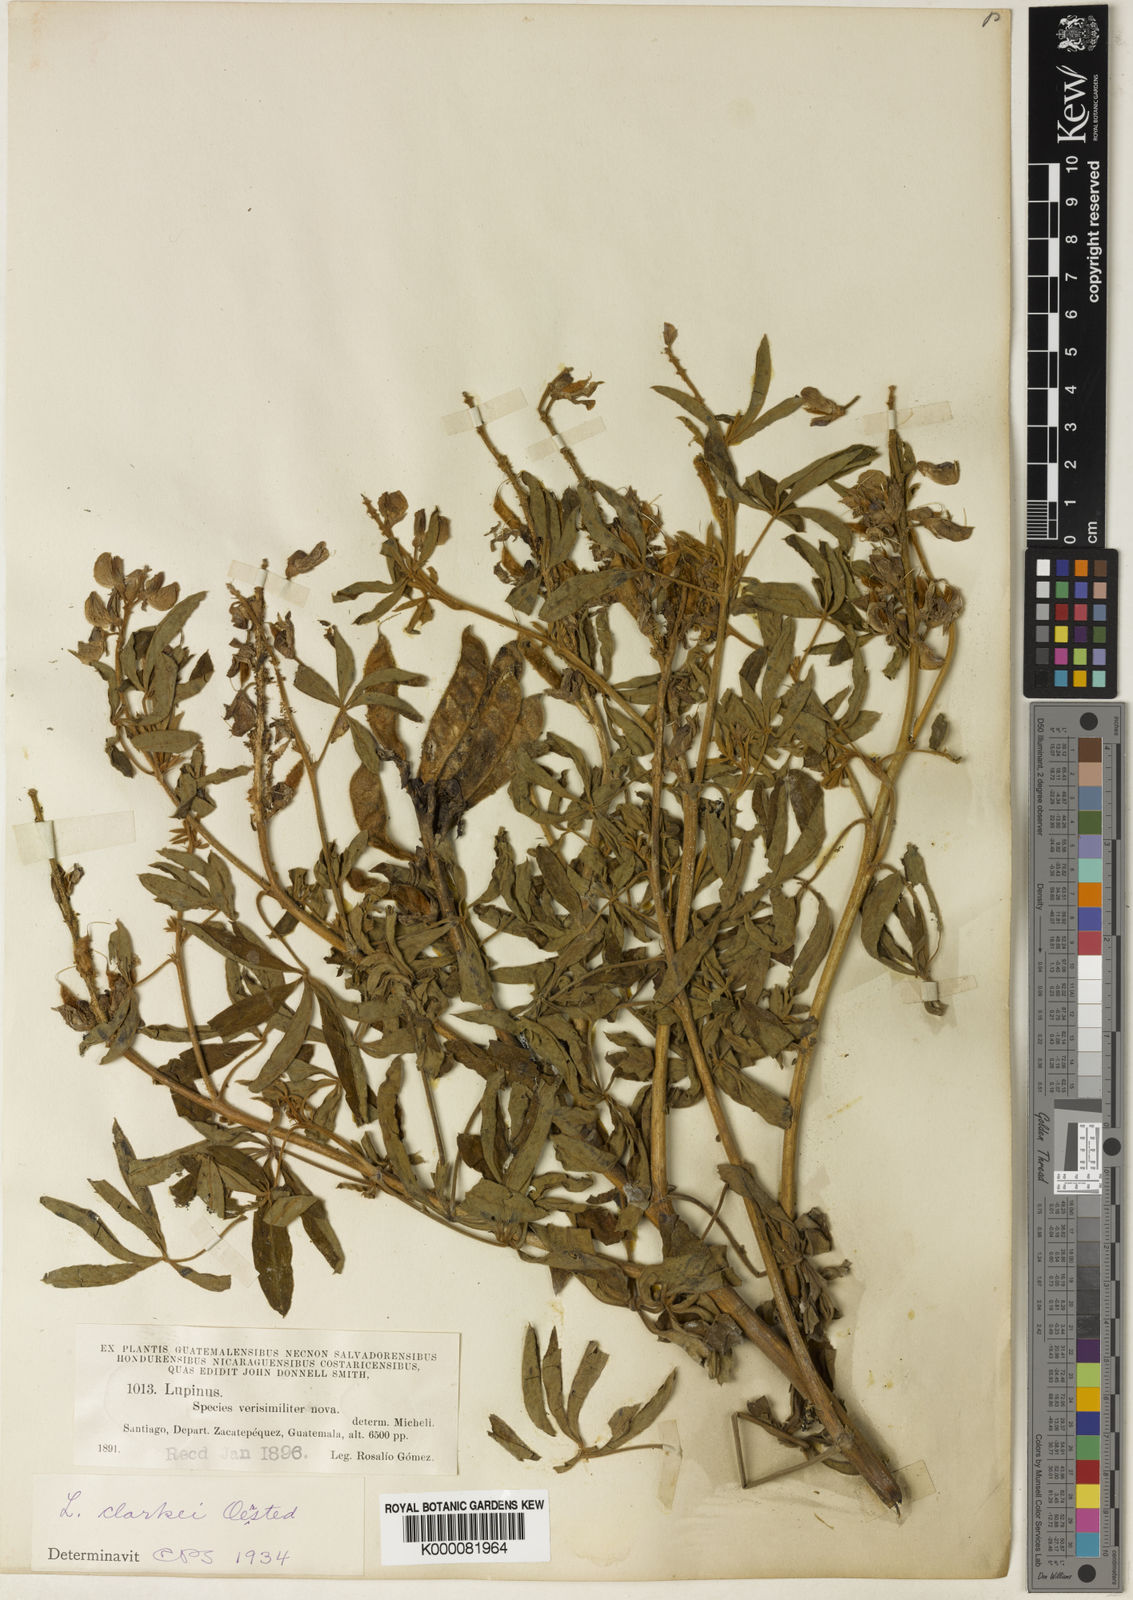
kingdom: Plantae
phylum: Tracheophyta
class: Magnoliopsida
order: Fabales
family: Fabaceae
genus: Lupinus
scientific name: Lupinus clarkei
